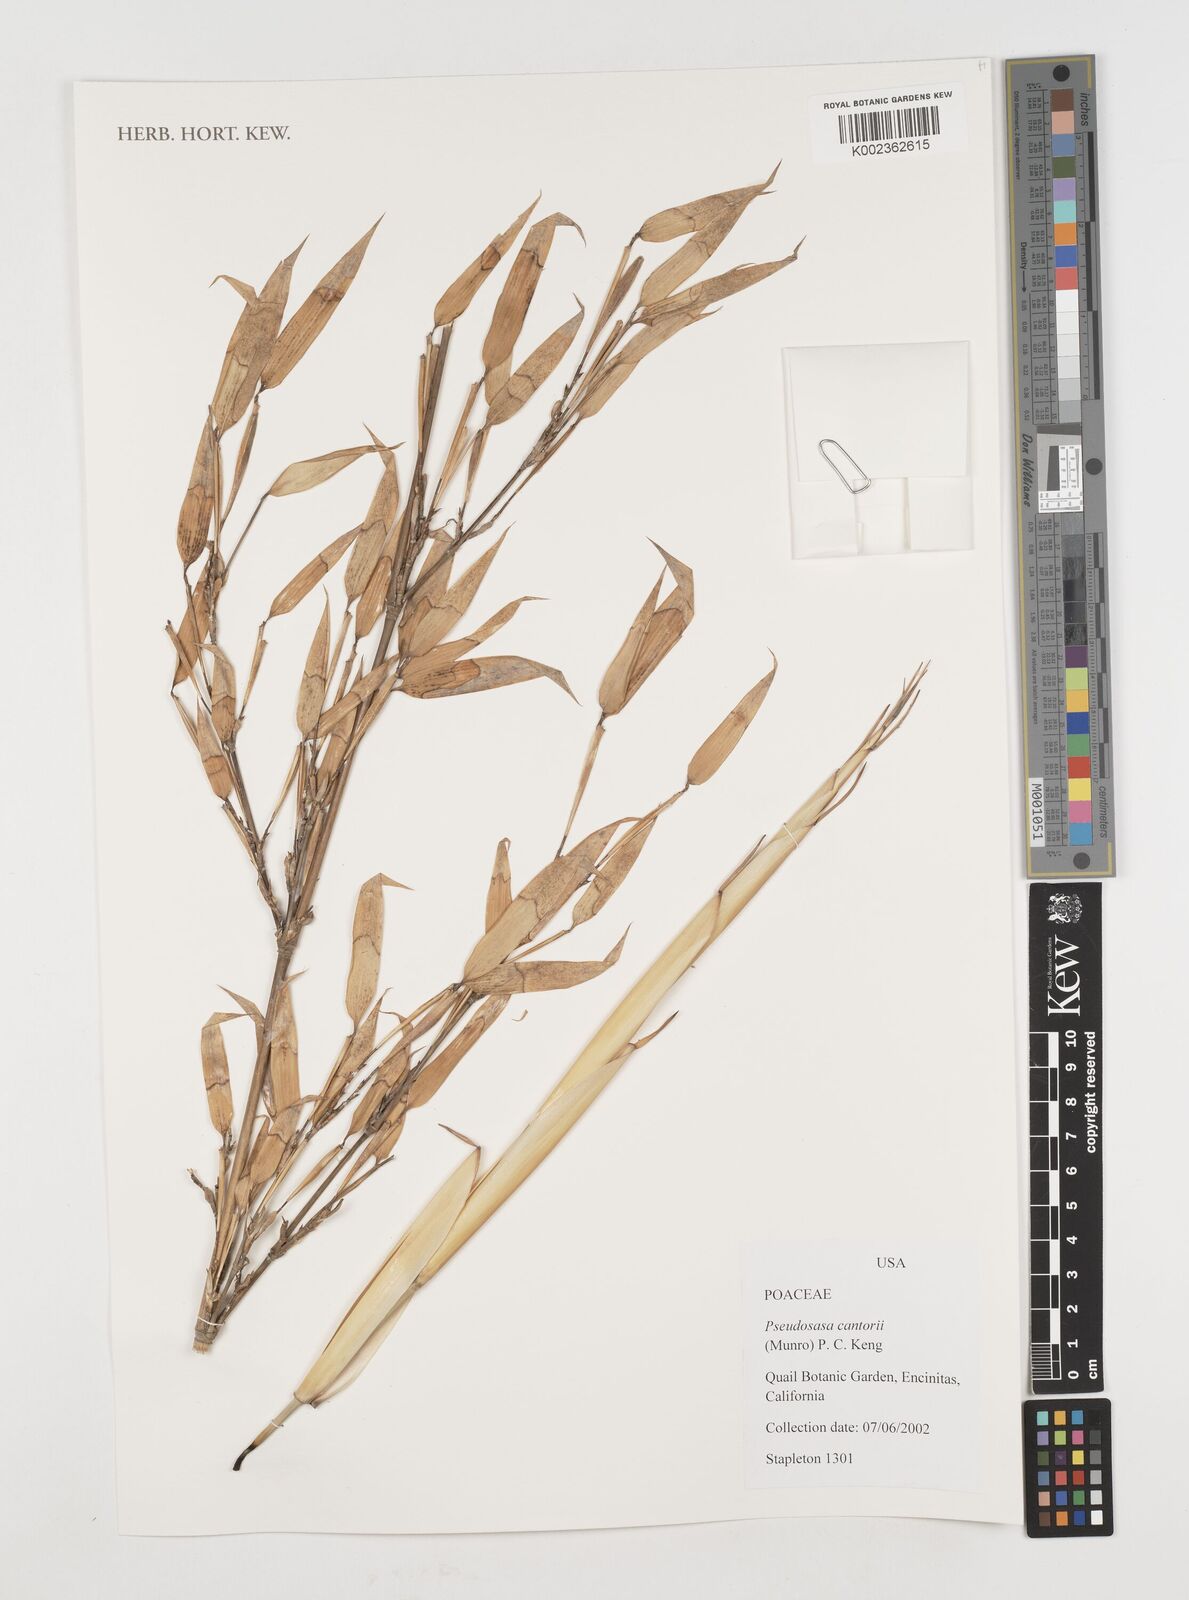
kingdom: Plantae
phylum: Tracheophyta
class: Liliopsida
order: Poales
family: Poaceae
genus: Pseudosasa
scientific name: Pseudosasa cantorii
